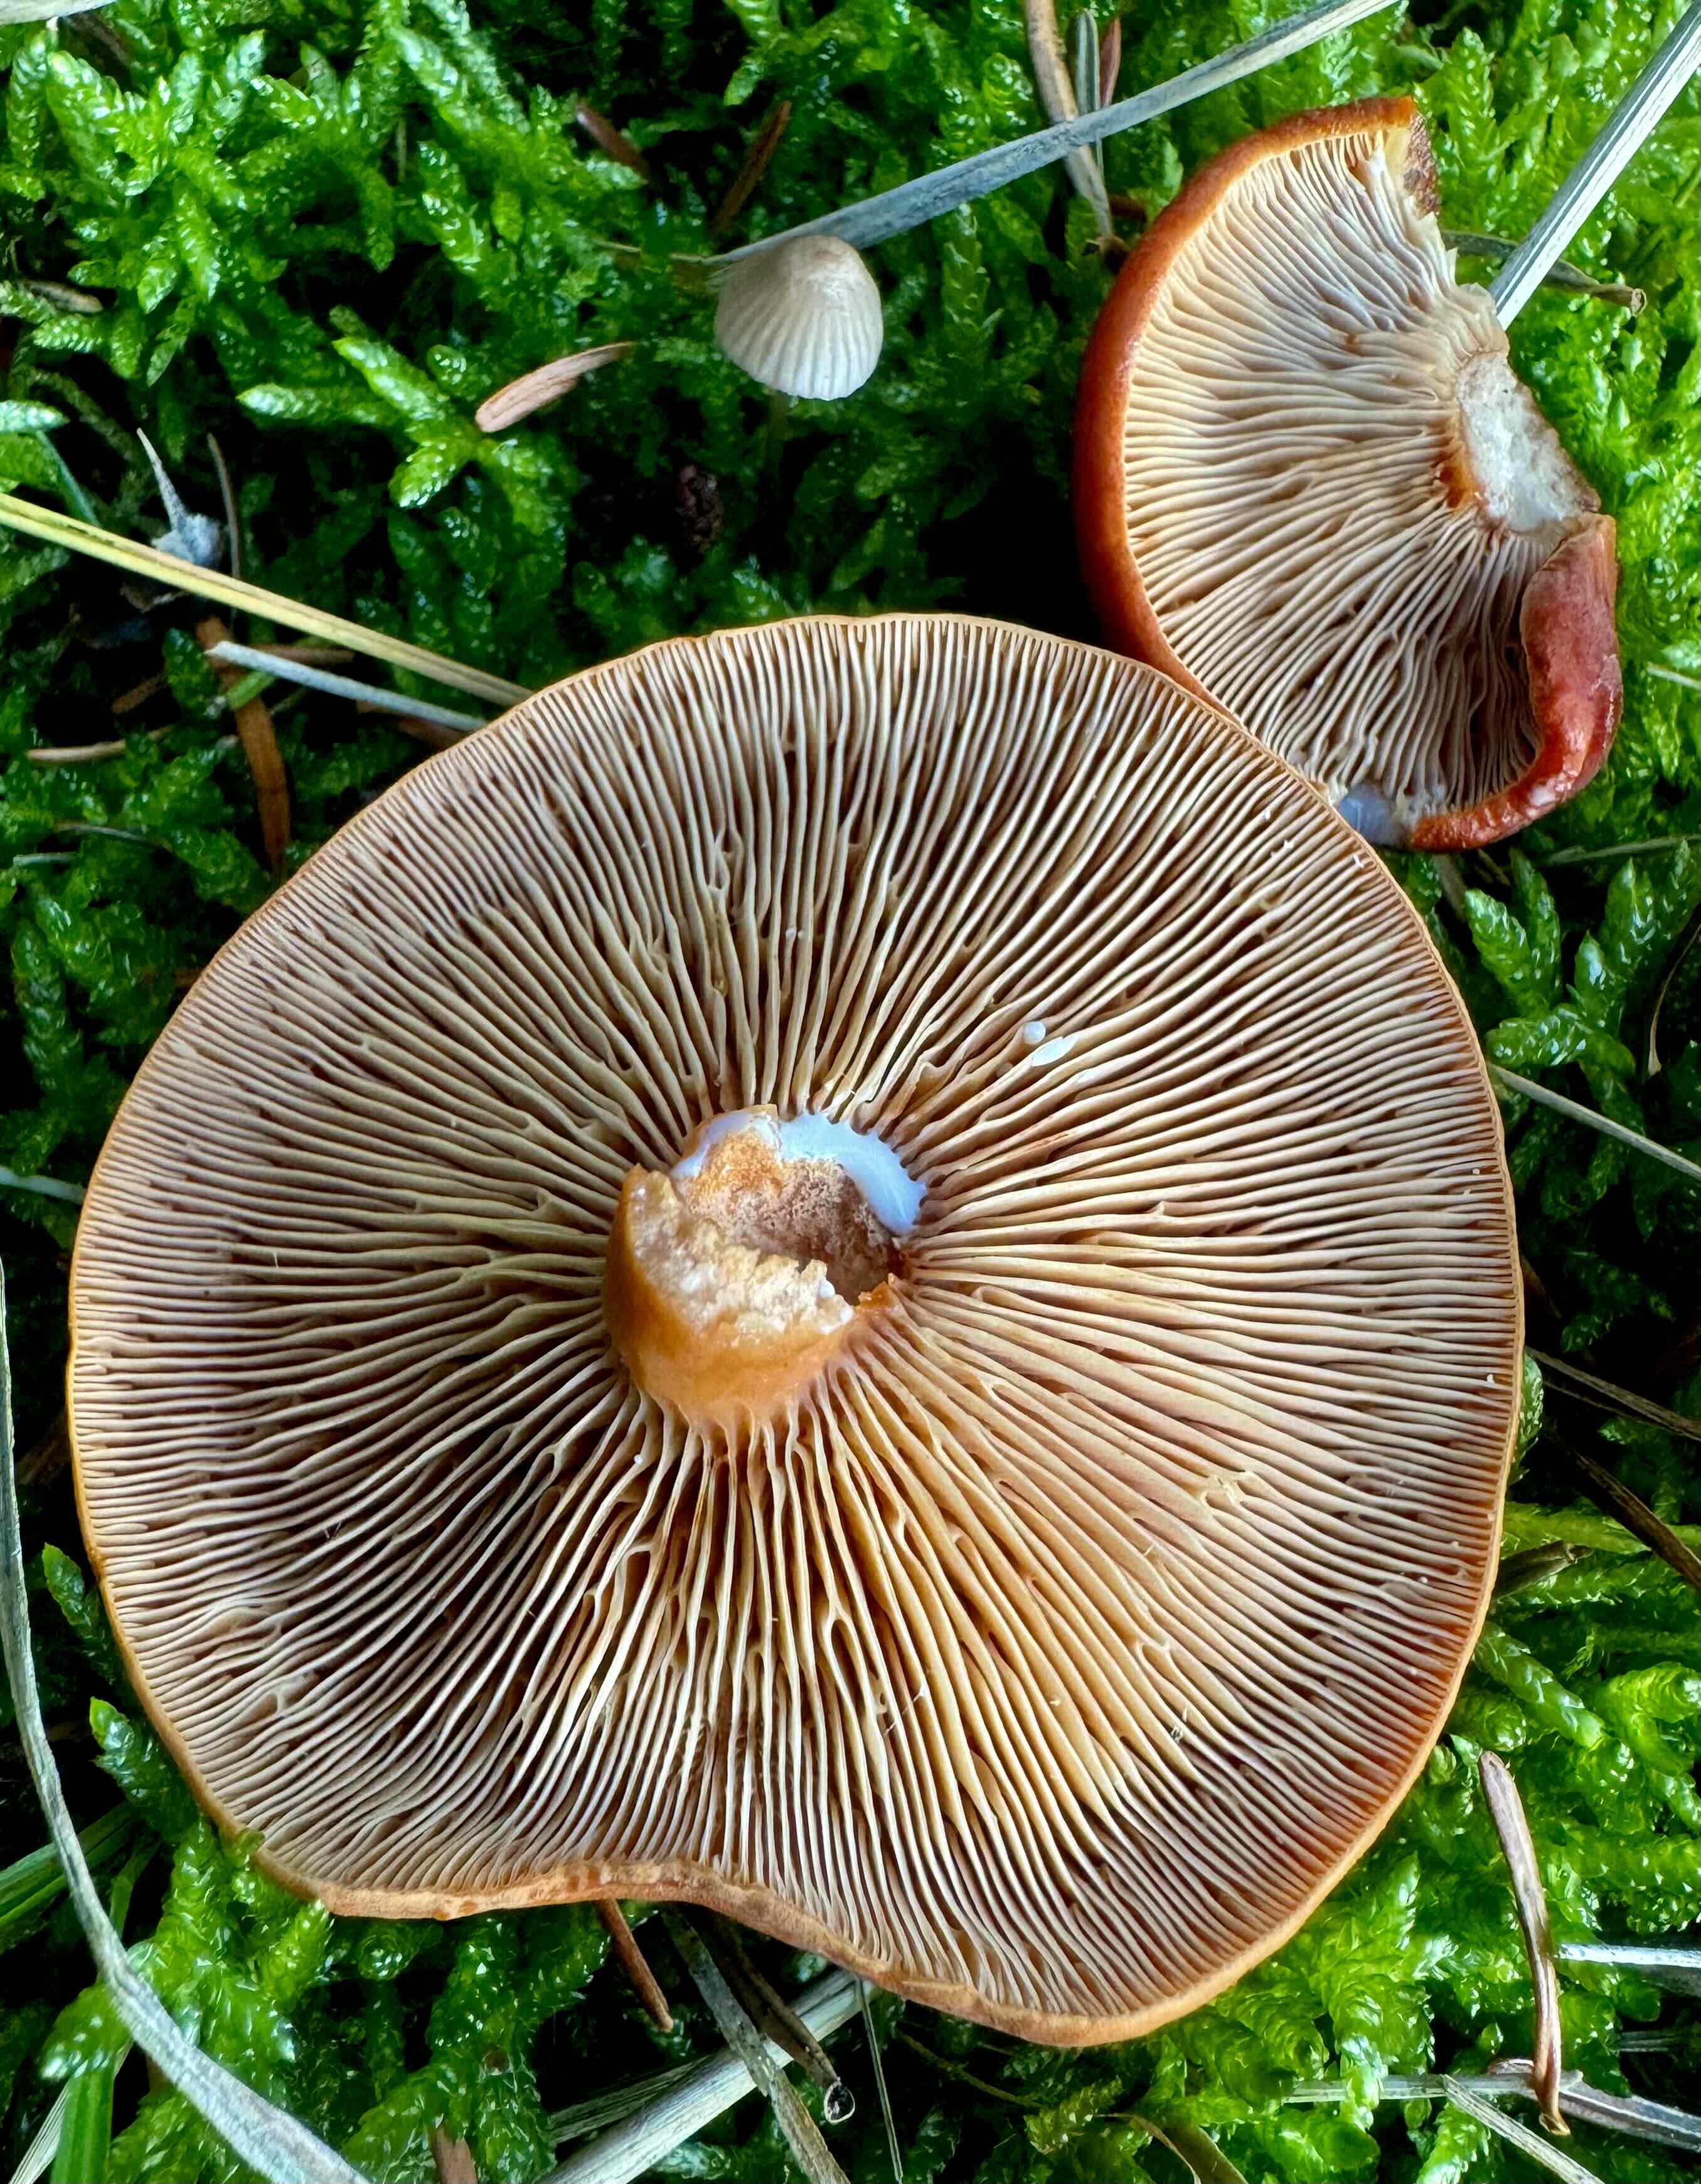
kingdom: Fungi
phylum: Basidiomycota
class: Agaricomycetes
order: Russulales
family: Russulaceae
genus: Lactarius
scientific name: Lactarius fulvissimus
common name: ræve-mælkehat
